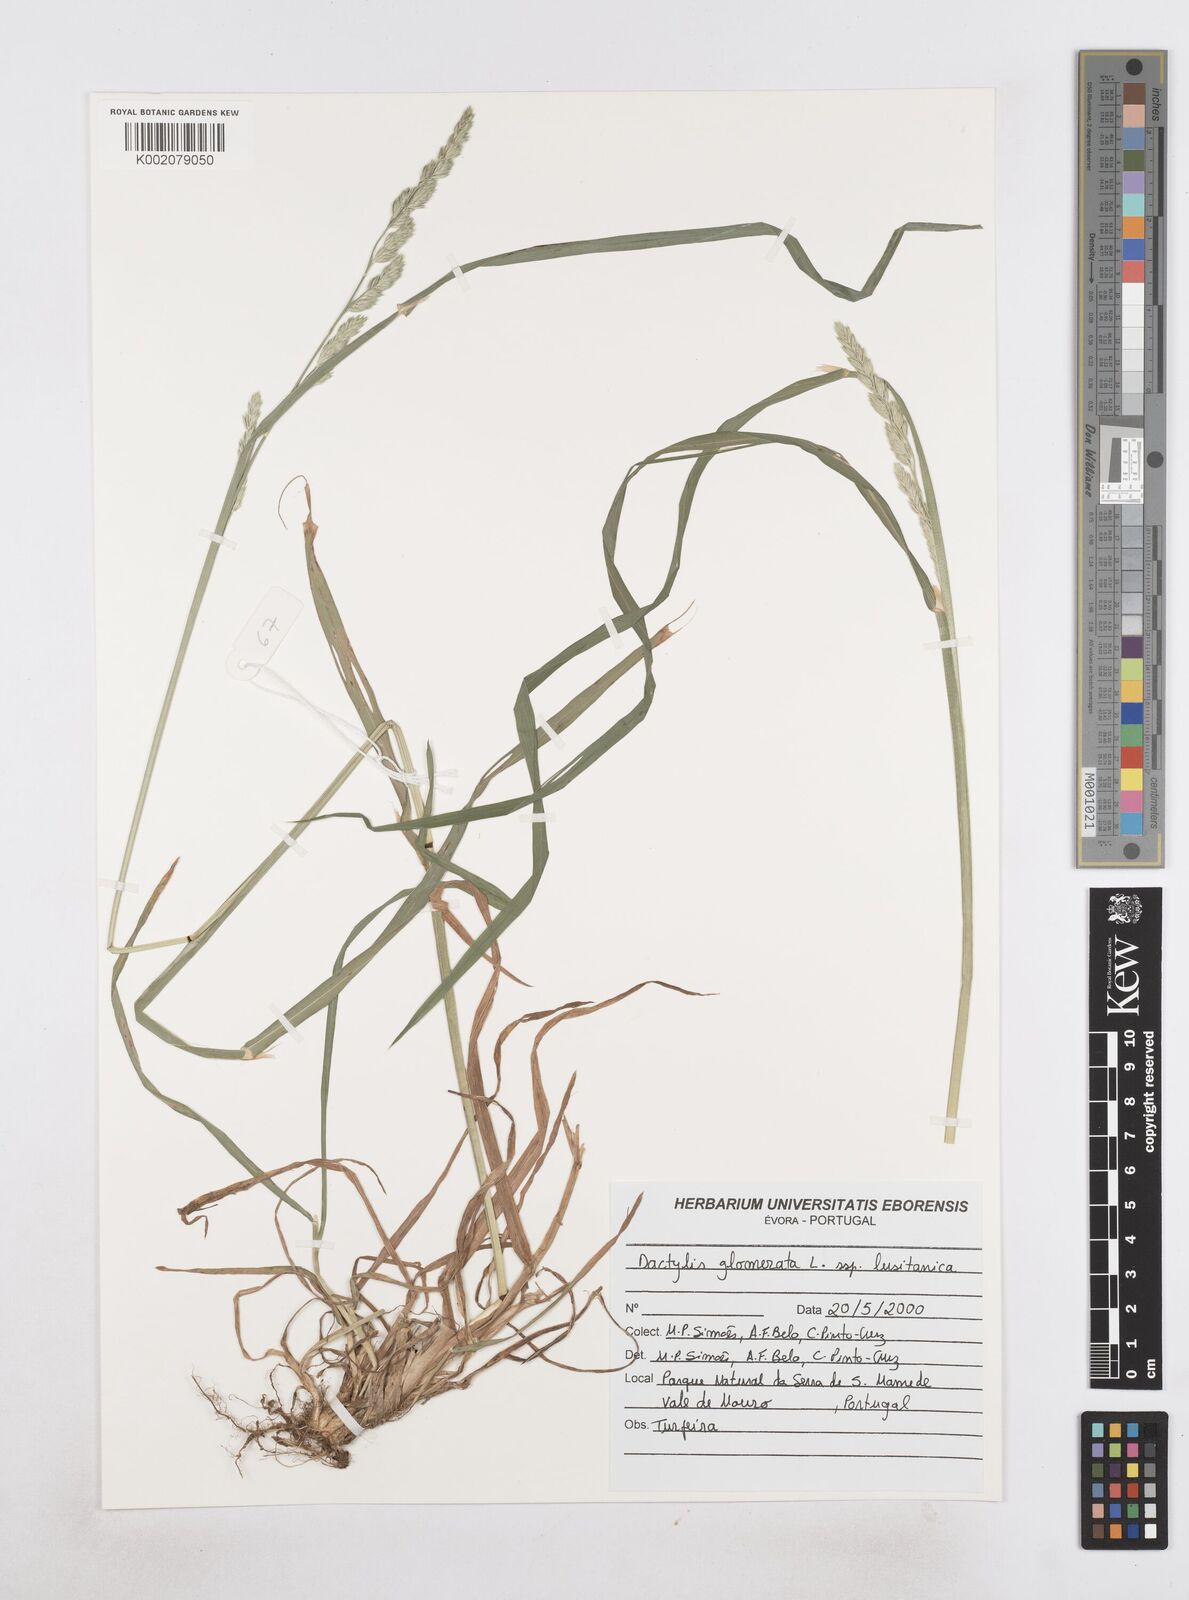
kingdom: Plantae
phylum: Tracheophyta
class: Liliopsida
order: Poales
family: Poaceae
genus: Dactylis
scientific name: Dactylis
